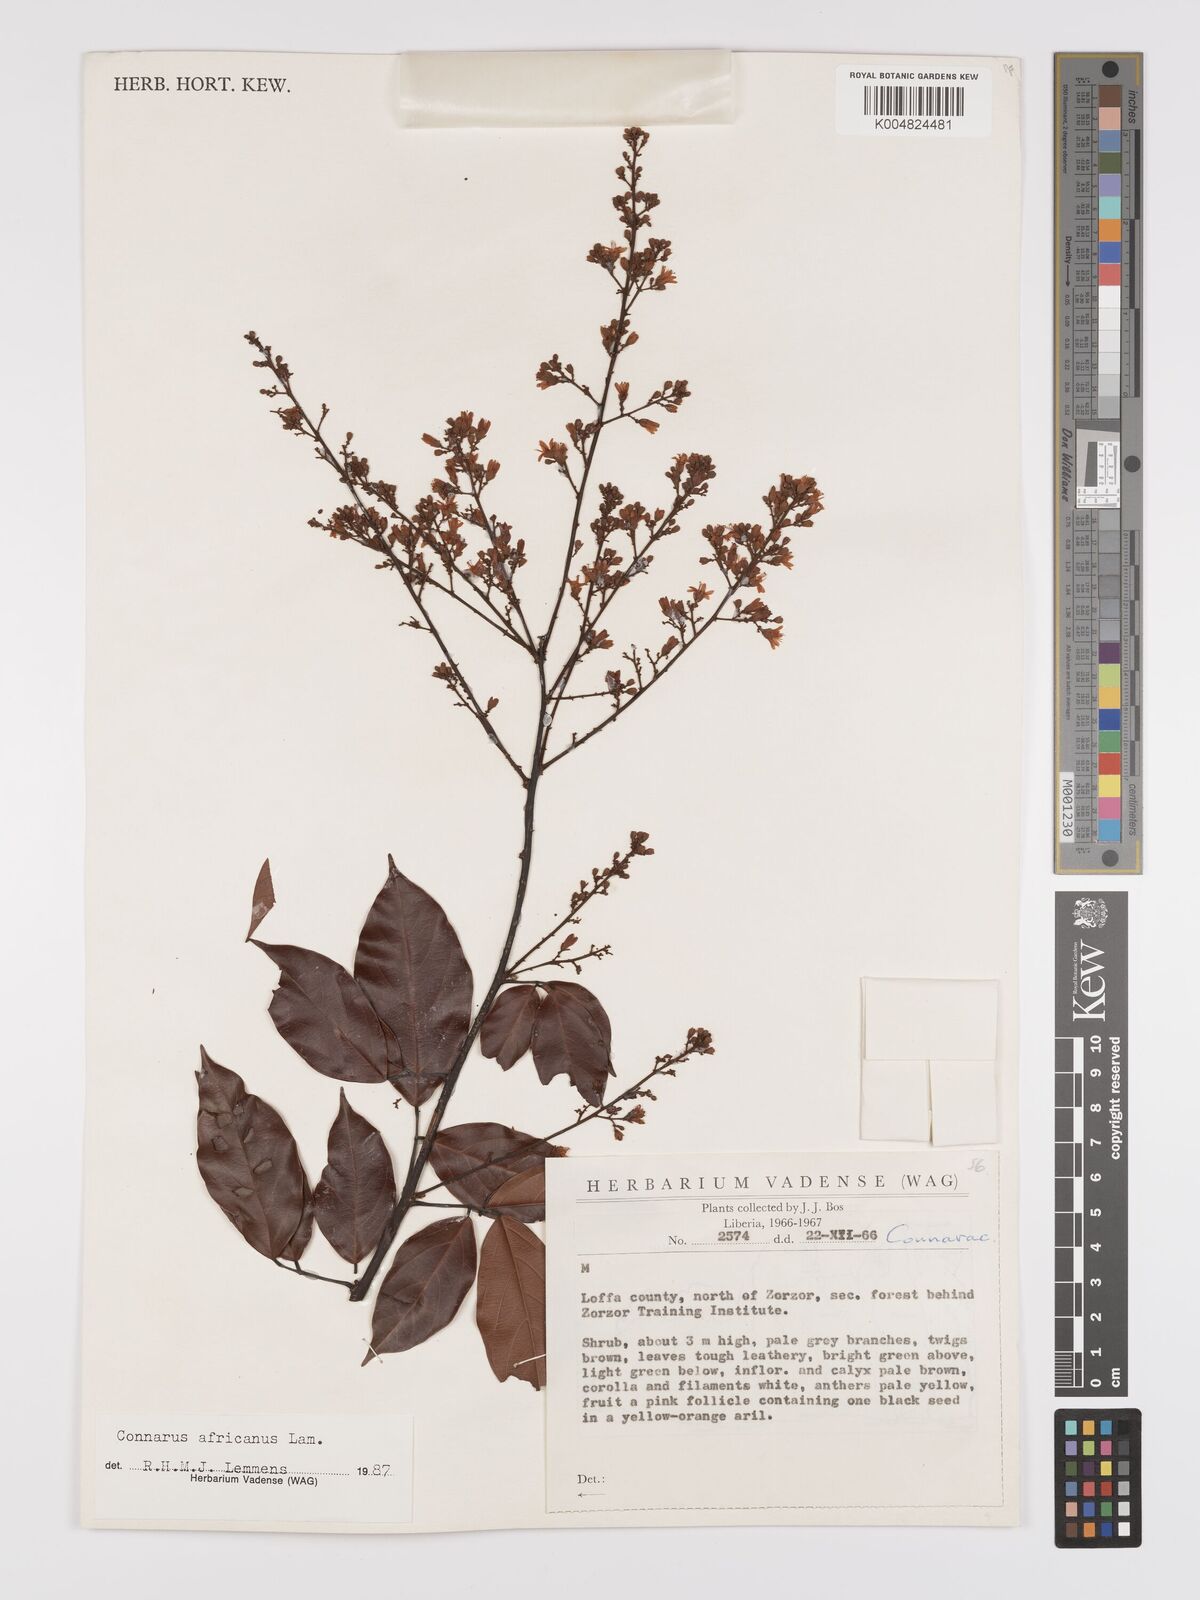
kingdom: Plantae
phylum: Tracheophyta
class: Magnoliopsida
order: Oxalidales
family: Connaraceae
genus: Connarus
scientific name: Connarus africanus
